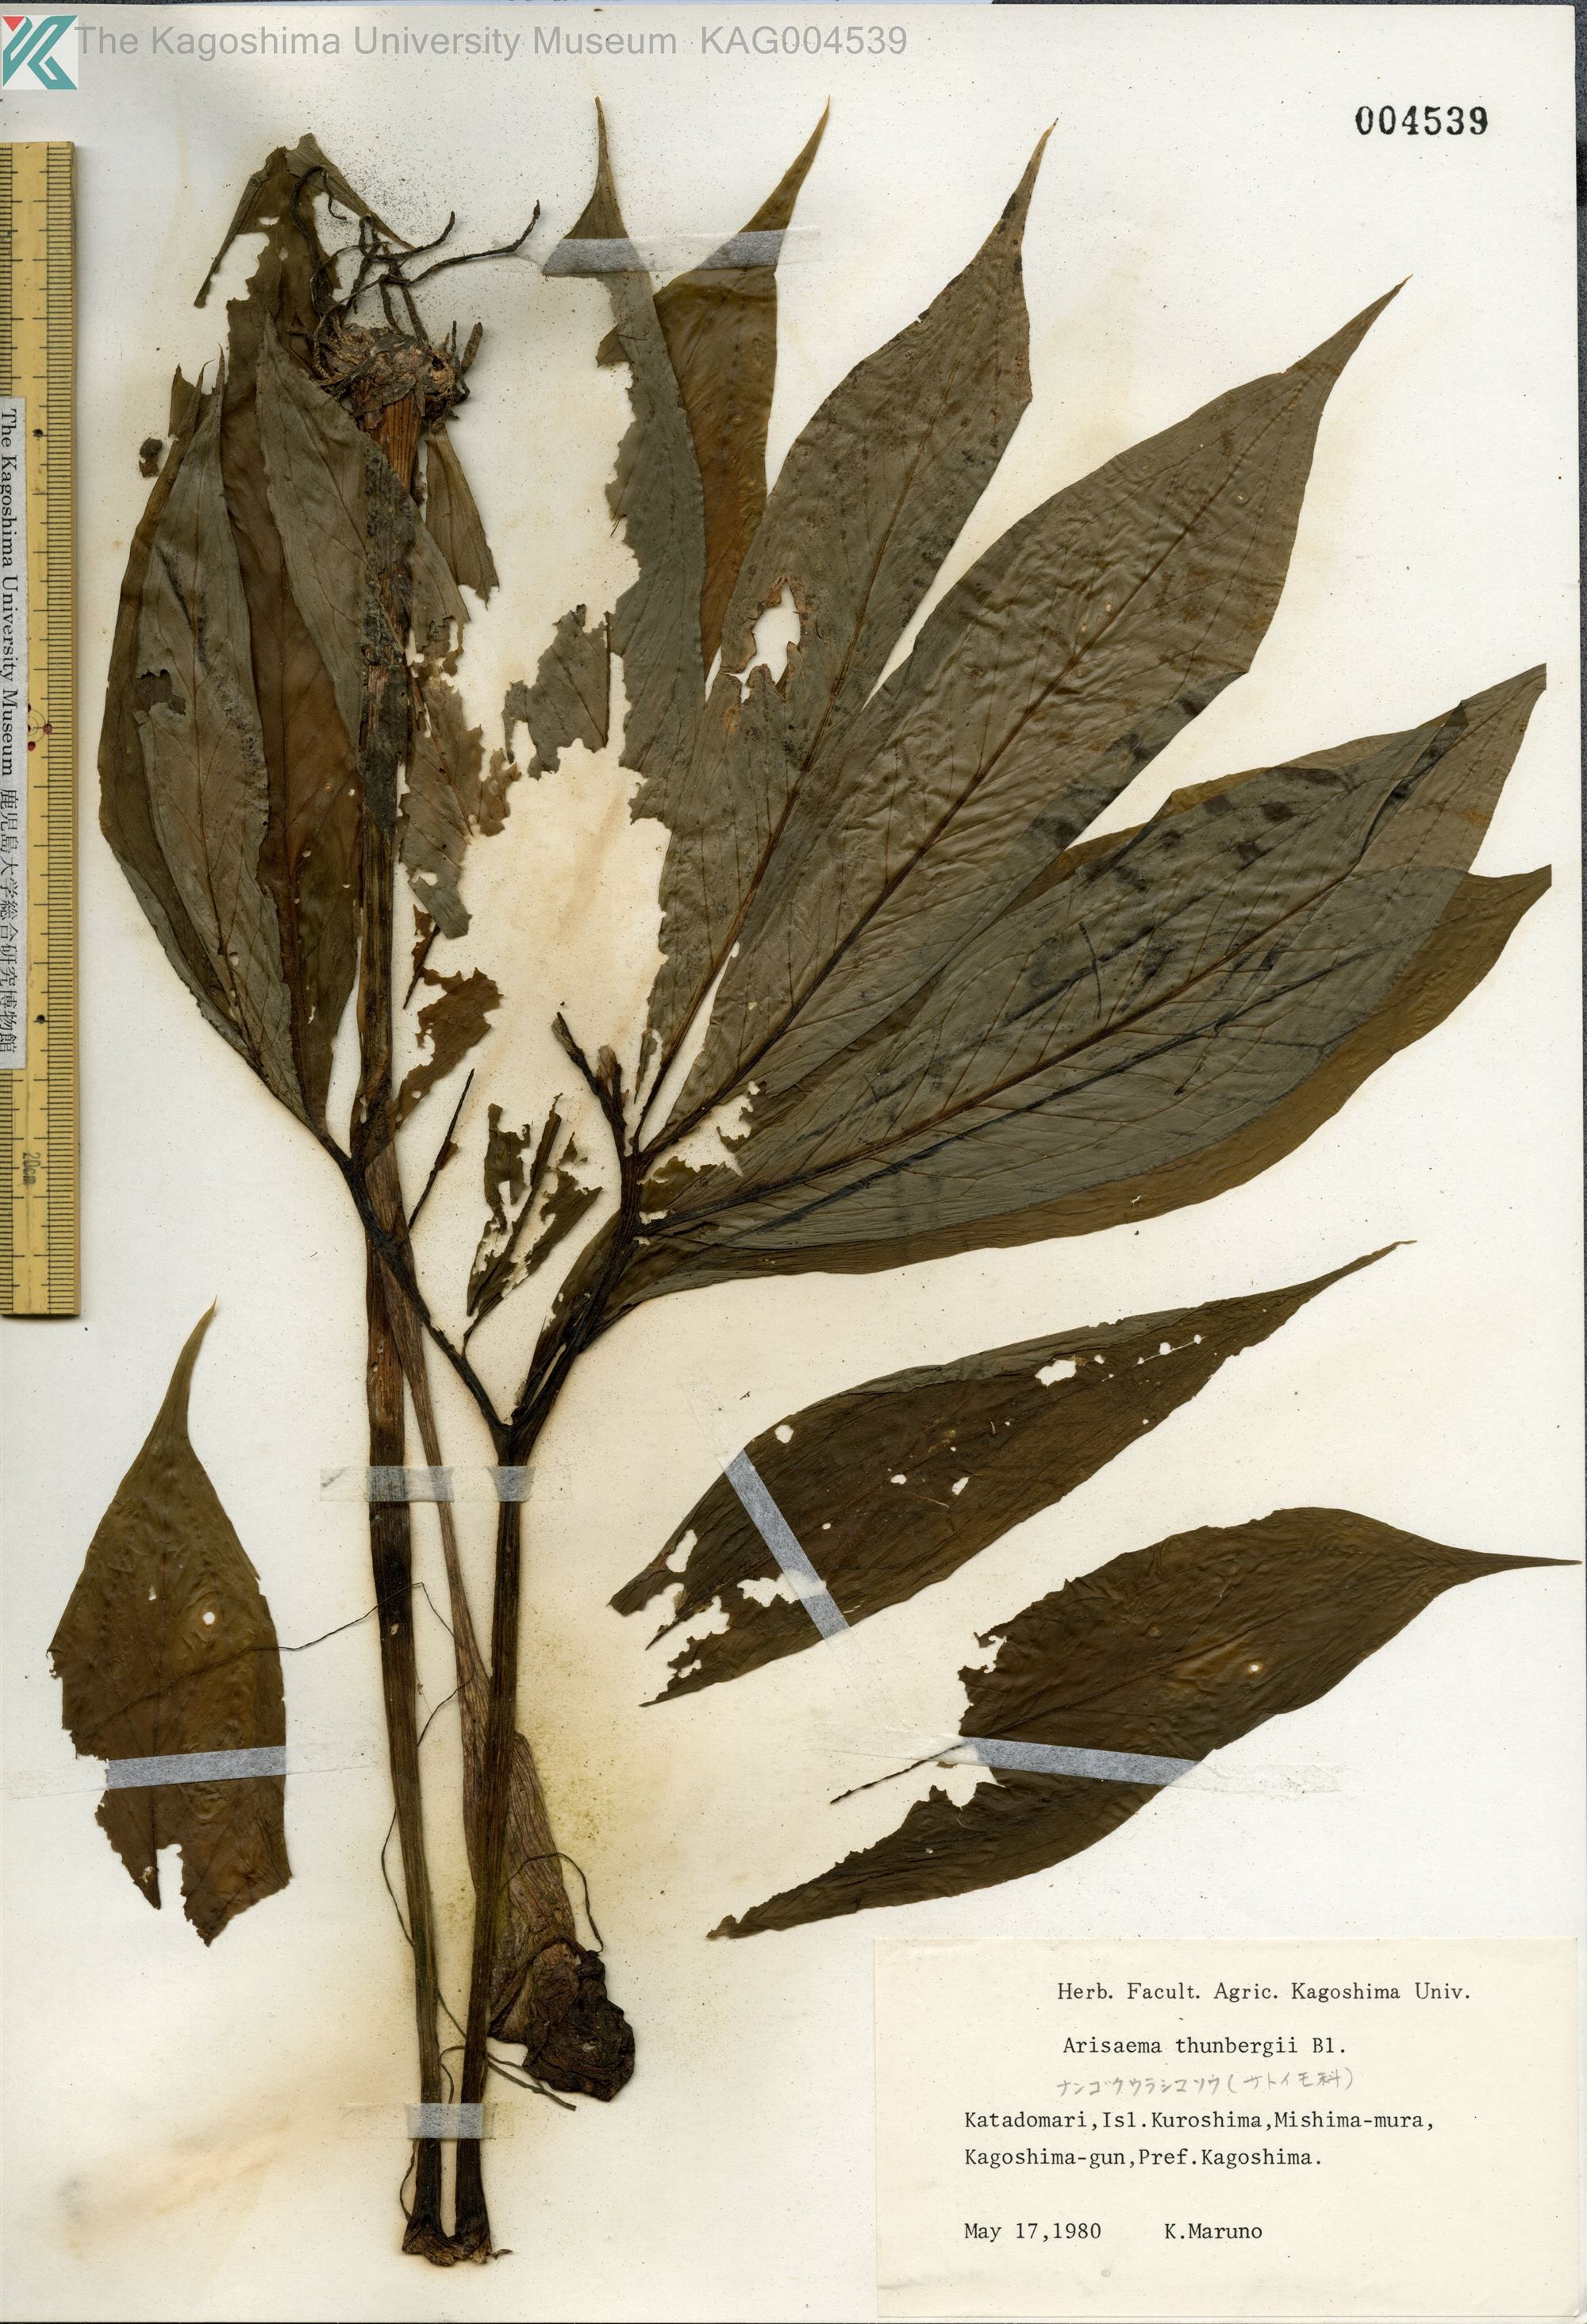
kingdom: Plantae
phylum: Tracheophyta
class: Liliopsida
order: Alismatales
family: Araceae
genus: Arisaema
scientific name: Arisaema thunbergii
